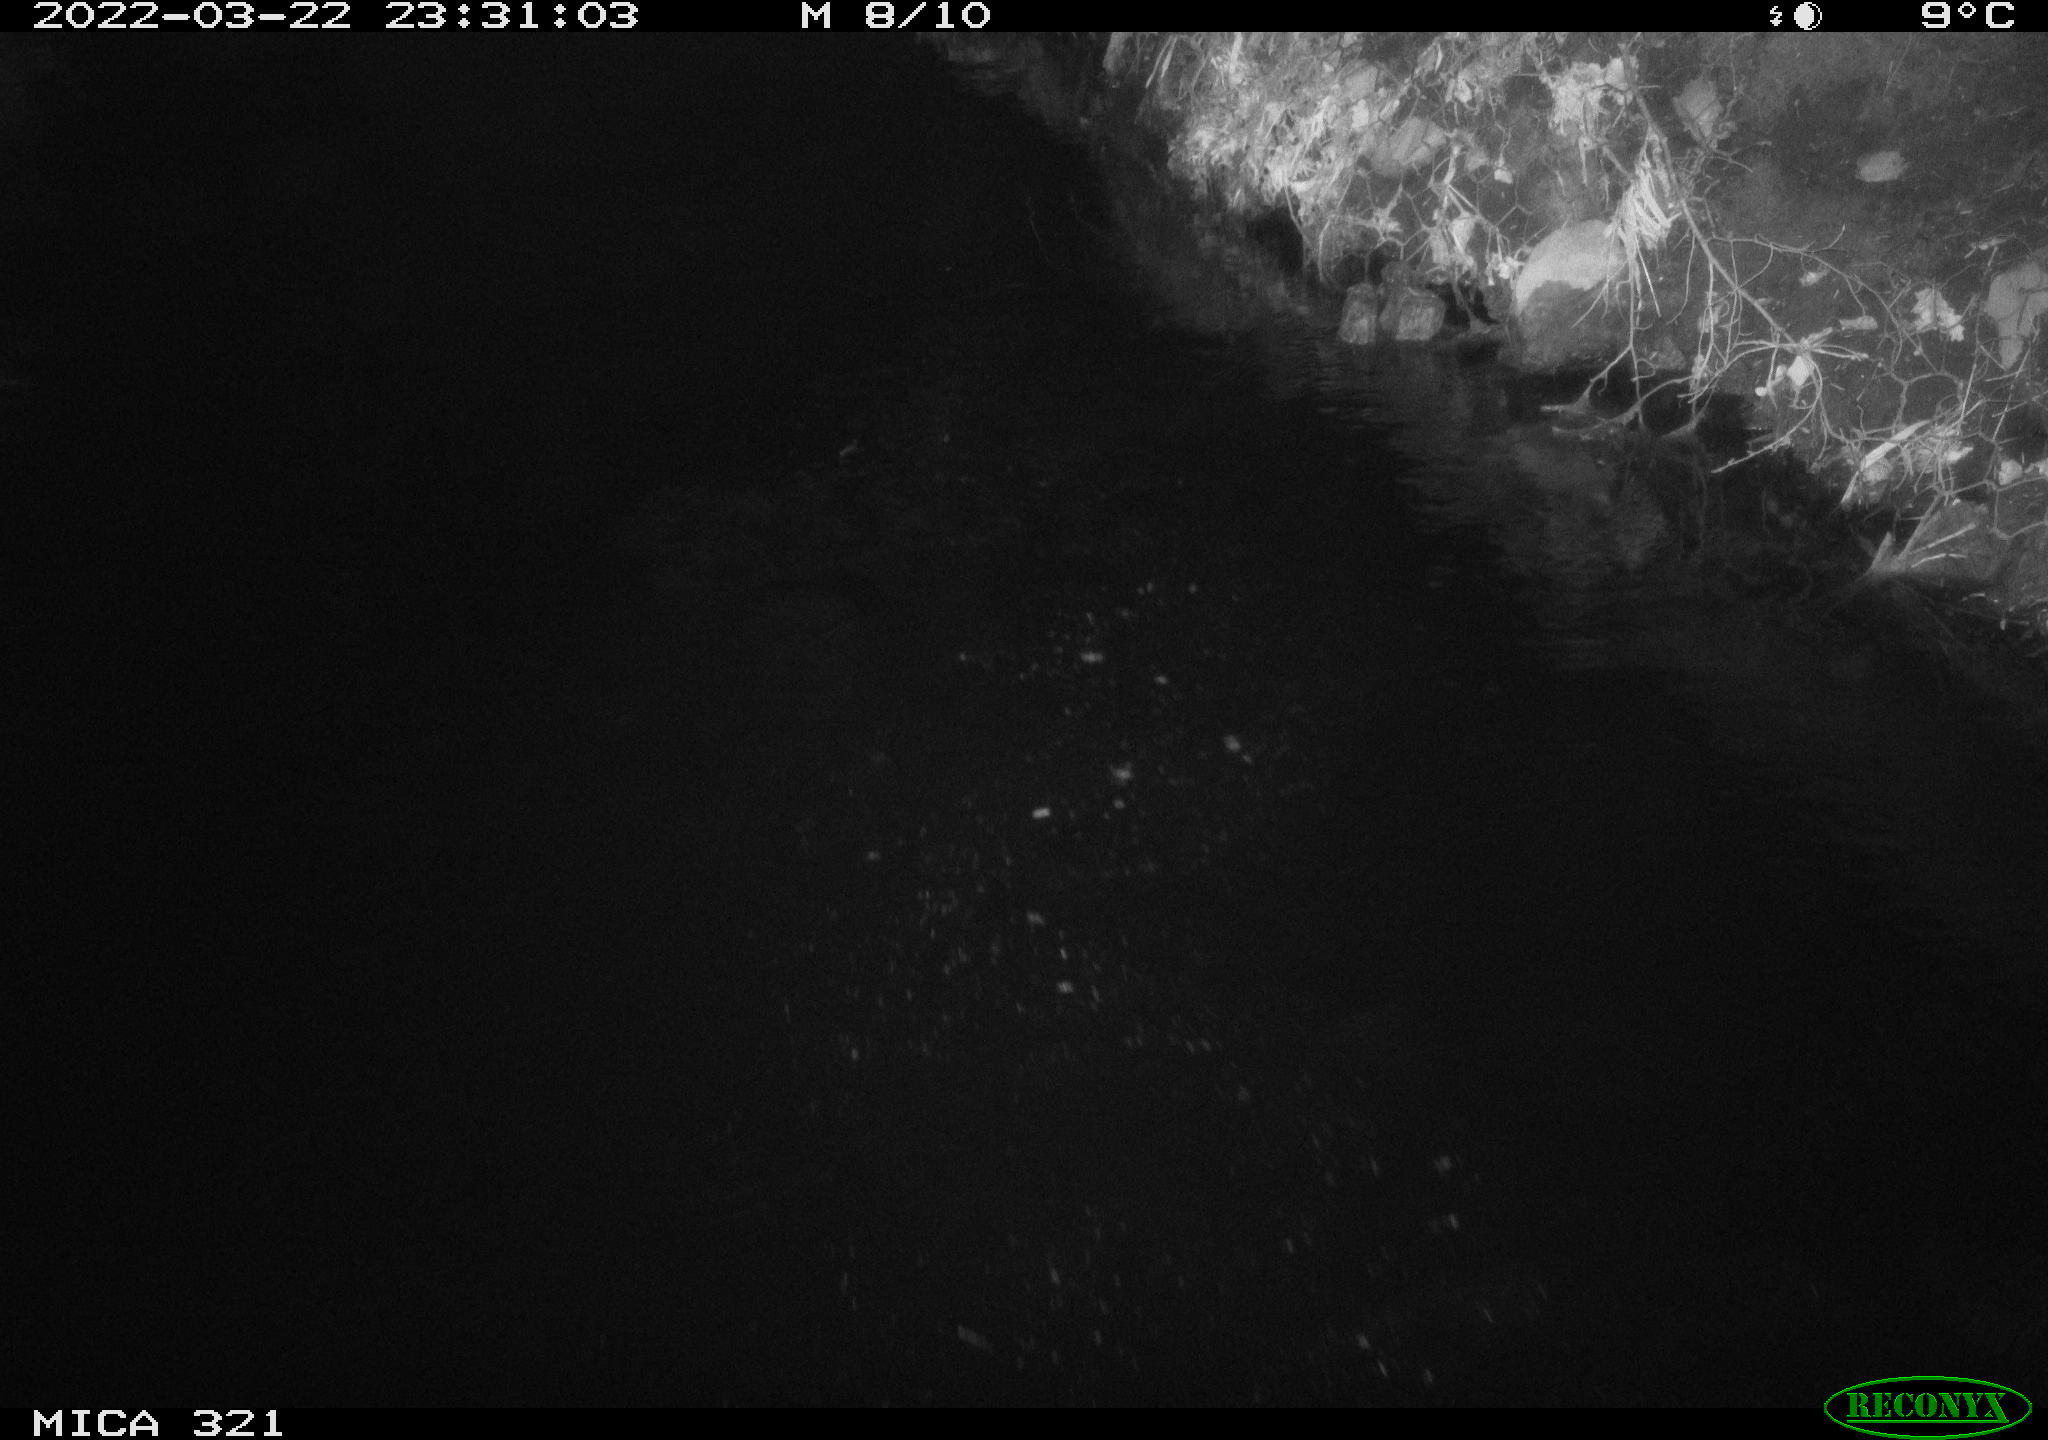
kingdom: Animalia
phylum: Chordata
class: Aves
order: Anseriformes
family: Anatidae
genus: Anas
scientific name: Anas platyrhynchos
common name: Mallard
